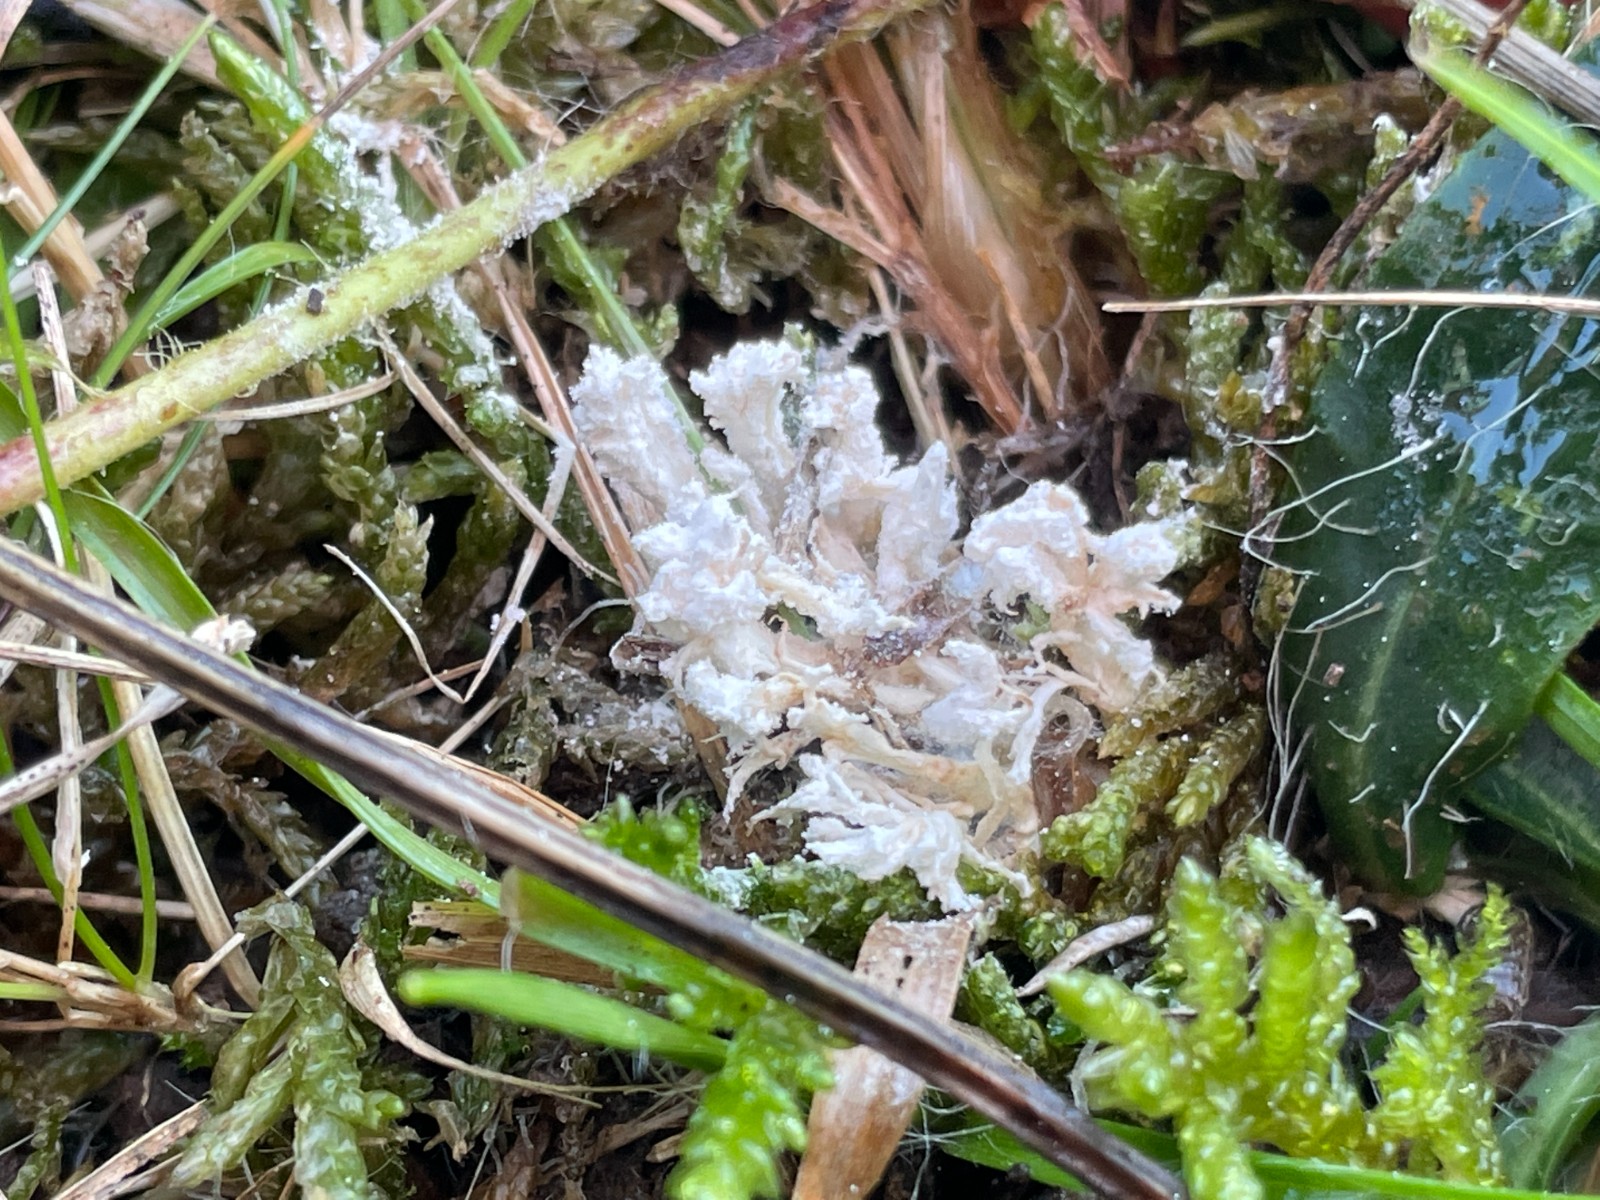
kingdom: Fungi
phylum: Ascomycota
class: Sordariomycetes
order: Hypocreales
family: Cordycipitaceae
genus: Cordyceps
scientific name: Cordyceps farinosa
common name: melet snyltekølle
